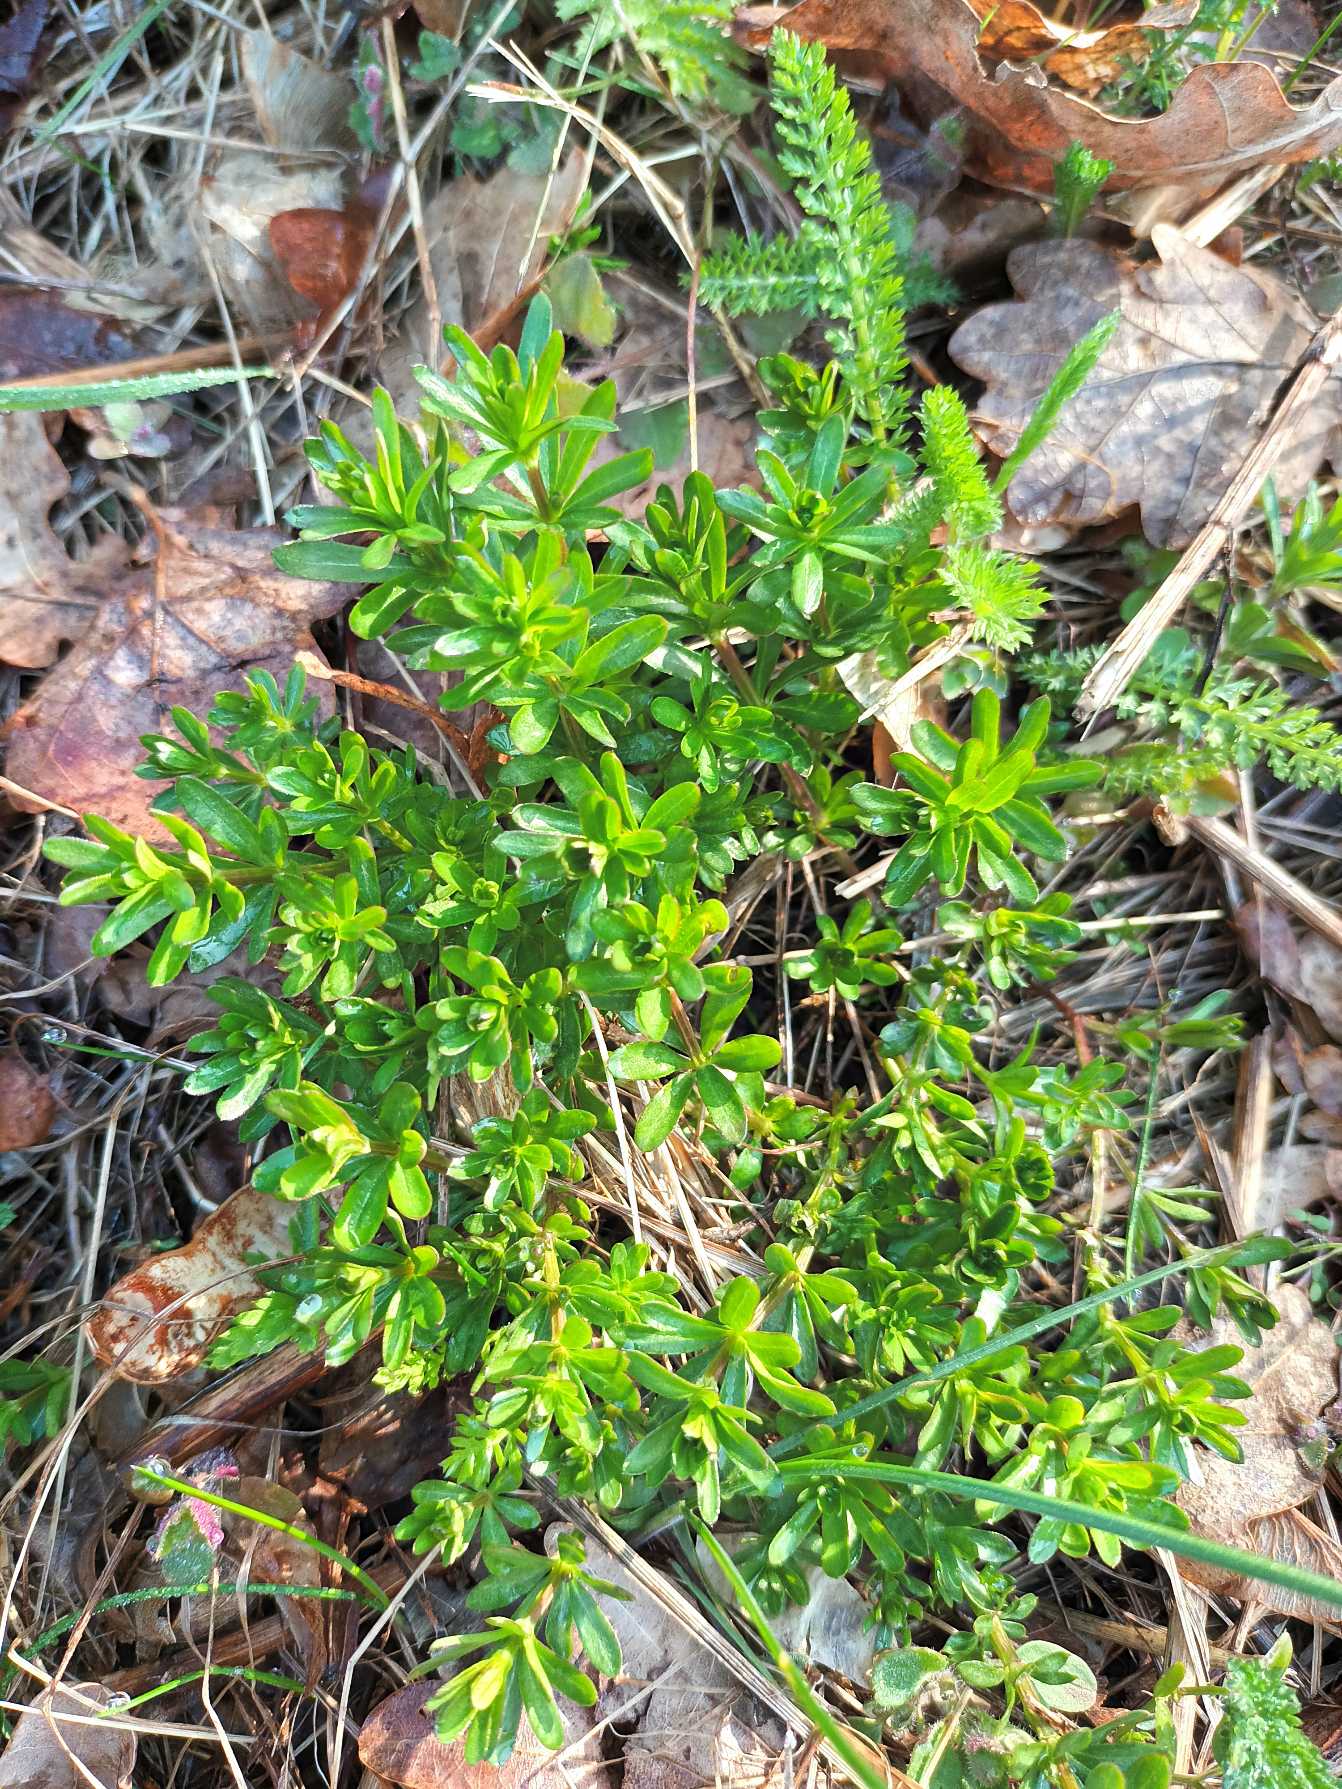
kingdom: Plantae
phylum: Tracheophyta
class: Magnoliopsida
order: Gentianales
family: Rubiaceae
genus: Galium
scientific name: Galium mollugo
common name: Hvid snerre
